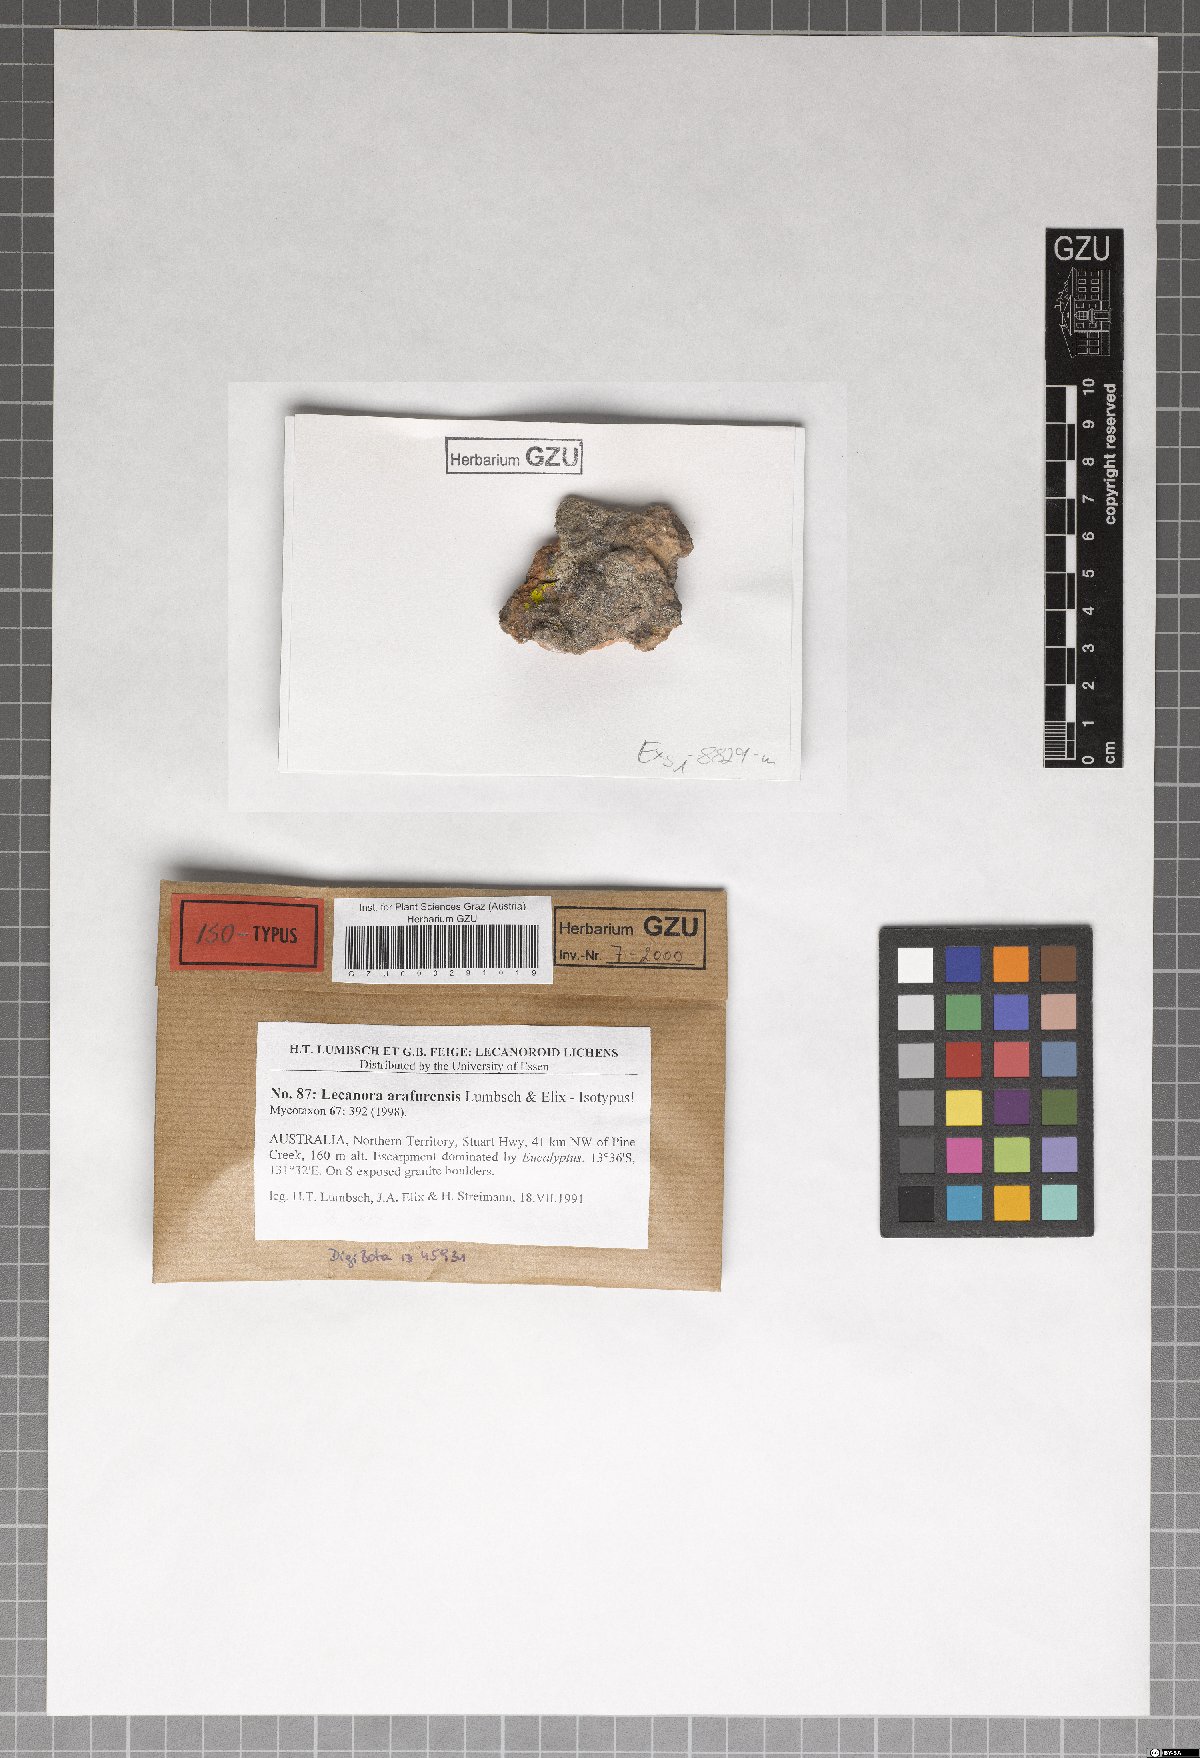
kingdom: Fungi
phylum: Ascomycota
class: Lecanoromycetes
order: Lecanorales
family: Lecanoraceae
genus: Lecanora
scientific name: Lecanora arafurensis
